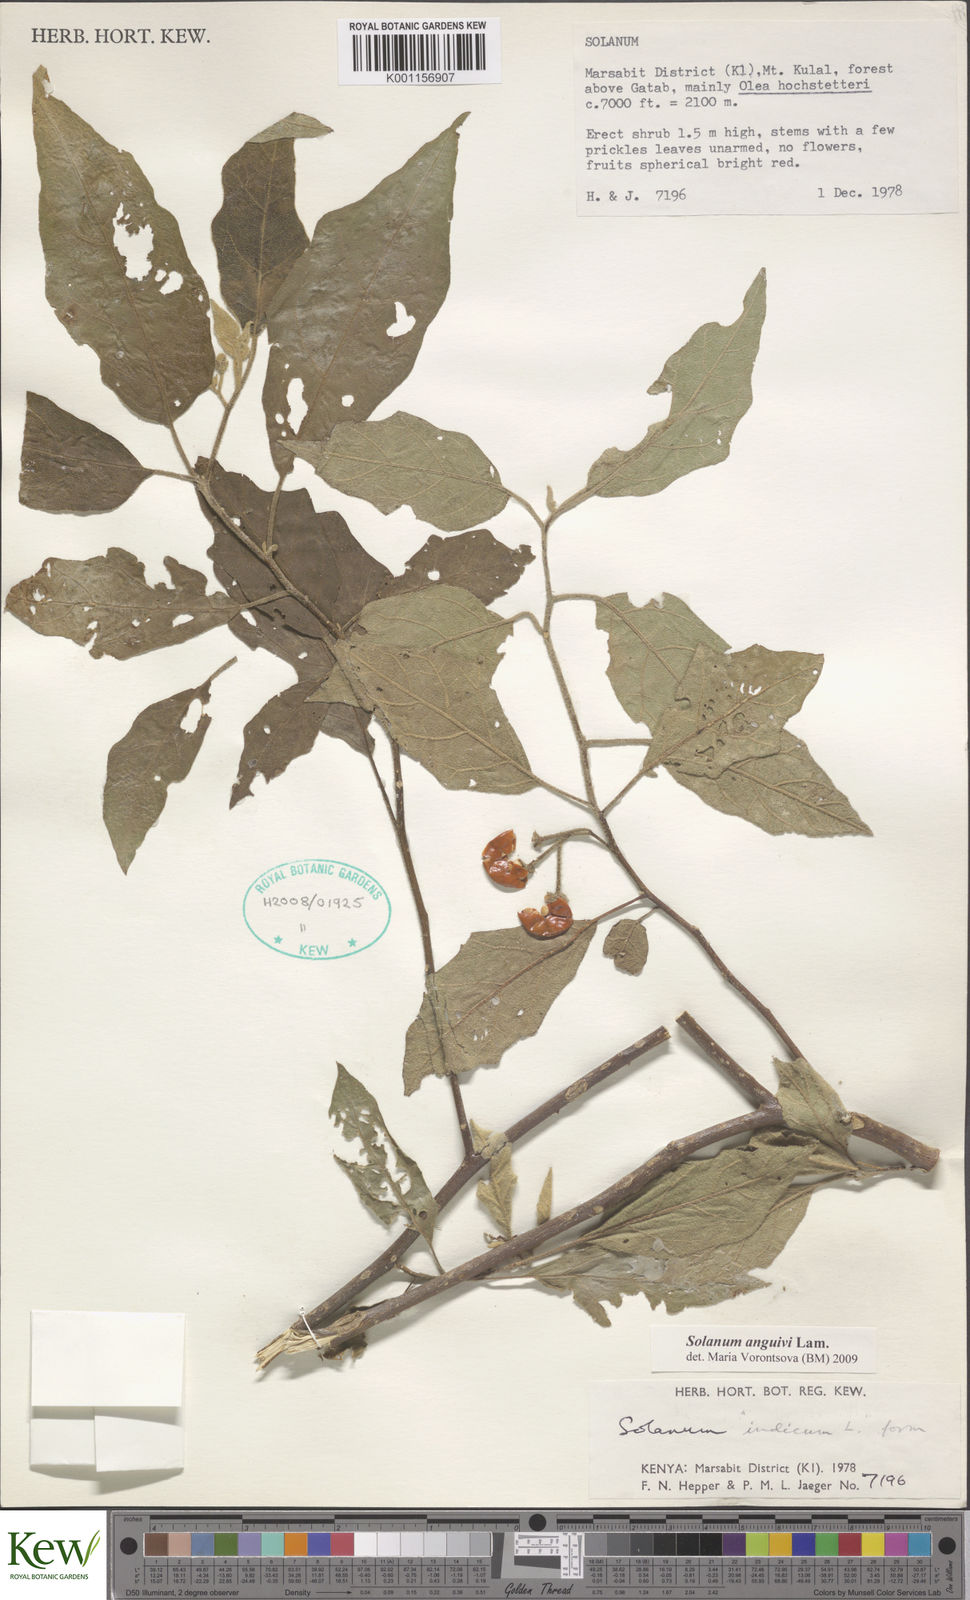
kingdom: Plantae
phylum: Tracheophyta
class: Magnoliopsida
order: Solanales
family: Solanaceae
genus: Solanum
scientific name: Solanum anguivi
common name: Forest bitterberry
